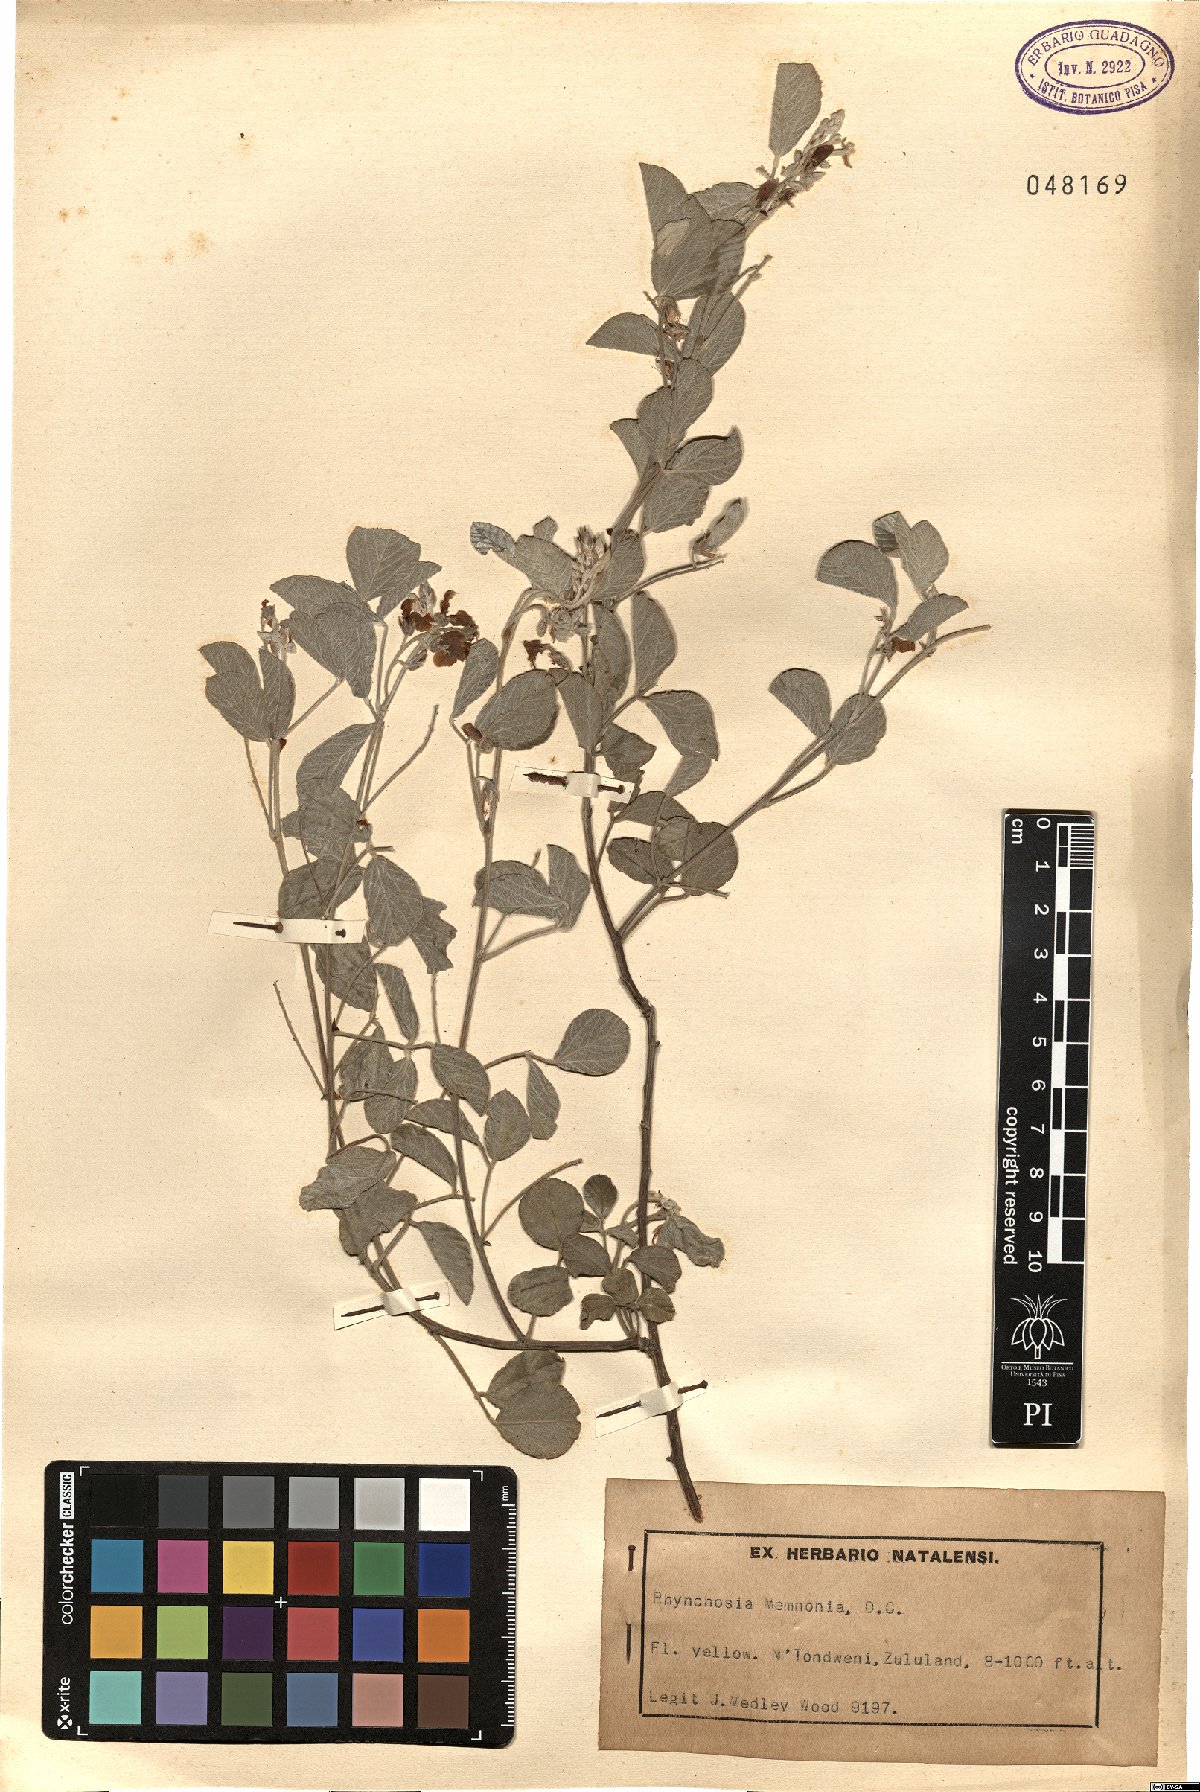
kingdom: Plantae
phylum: Tracheophyta
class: Magnoliopsida
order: Fabales
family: Fabaceae
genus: Rhynchosia
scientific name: Rhynchosia minima
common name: Least snoutbean
